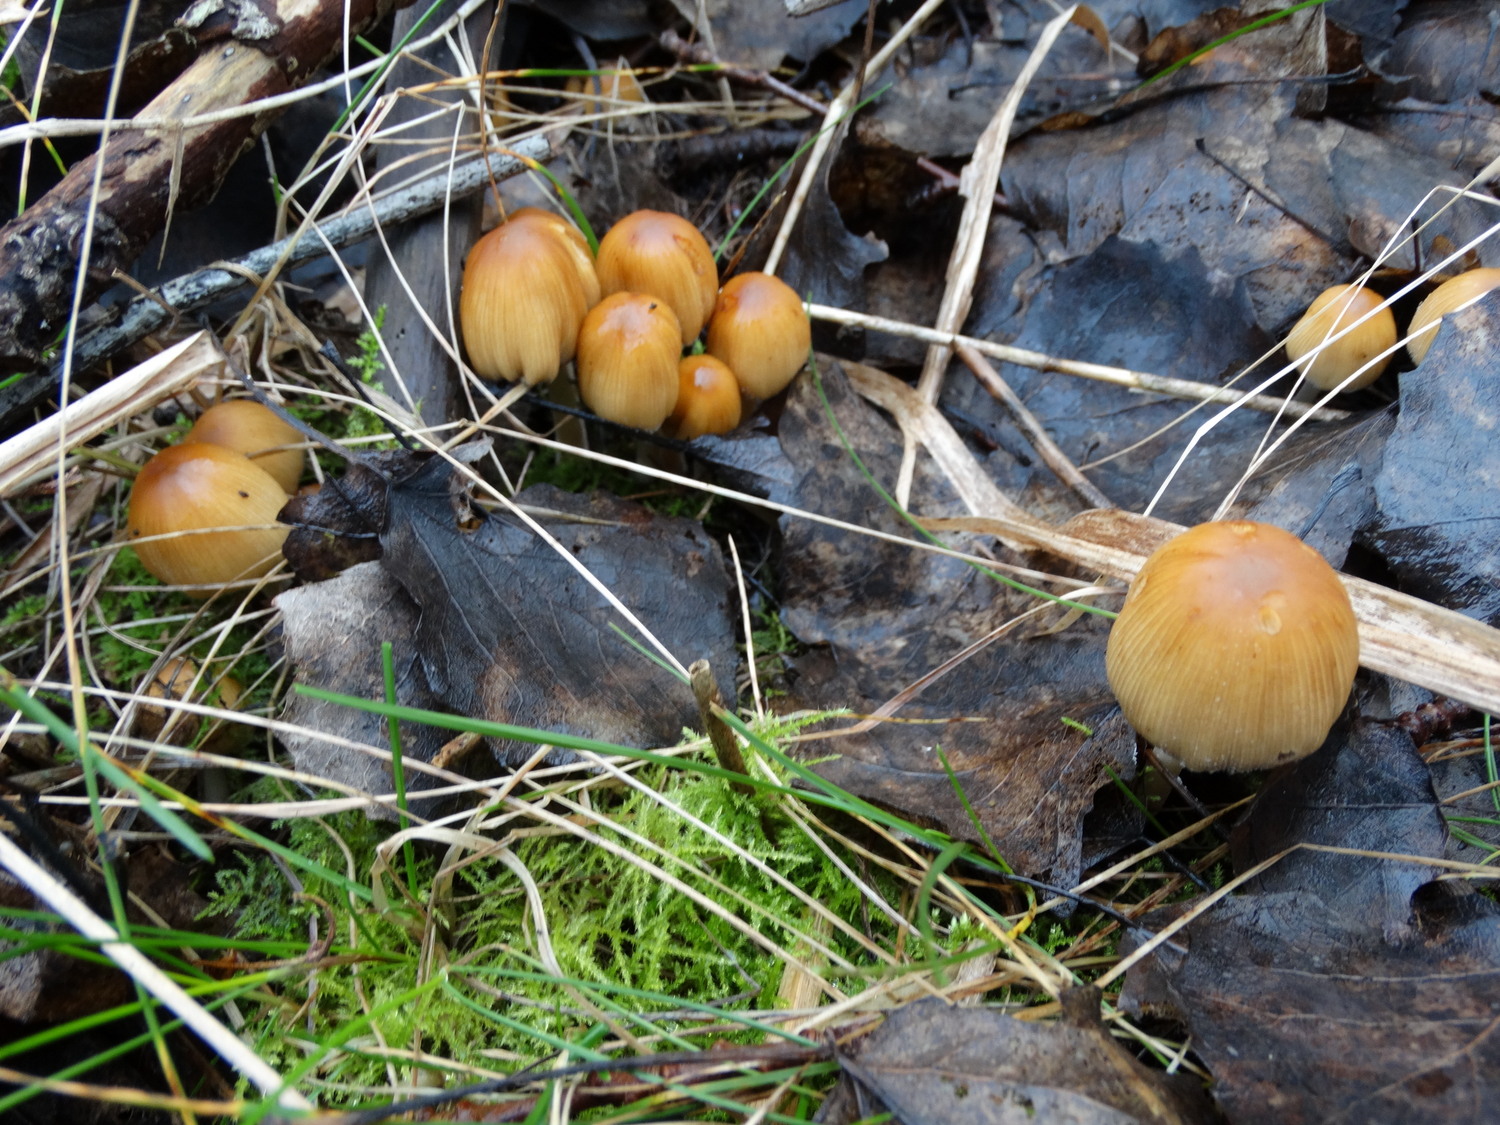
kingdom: Fungi
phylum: Basidiomycota
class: Agaricomycetes
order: Agaricales
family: Psathyrellaceae
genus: Coprinellus
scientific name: Coprinellus micaceus
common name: glimmer-blækhat
